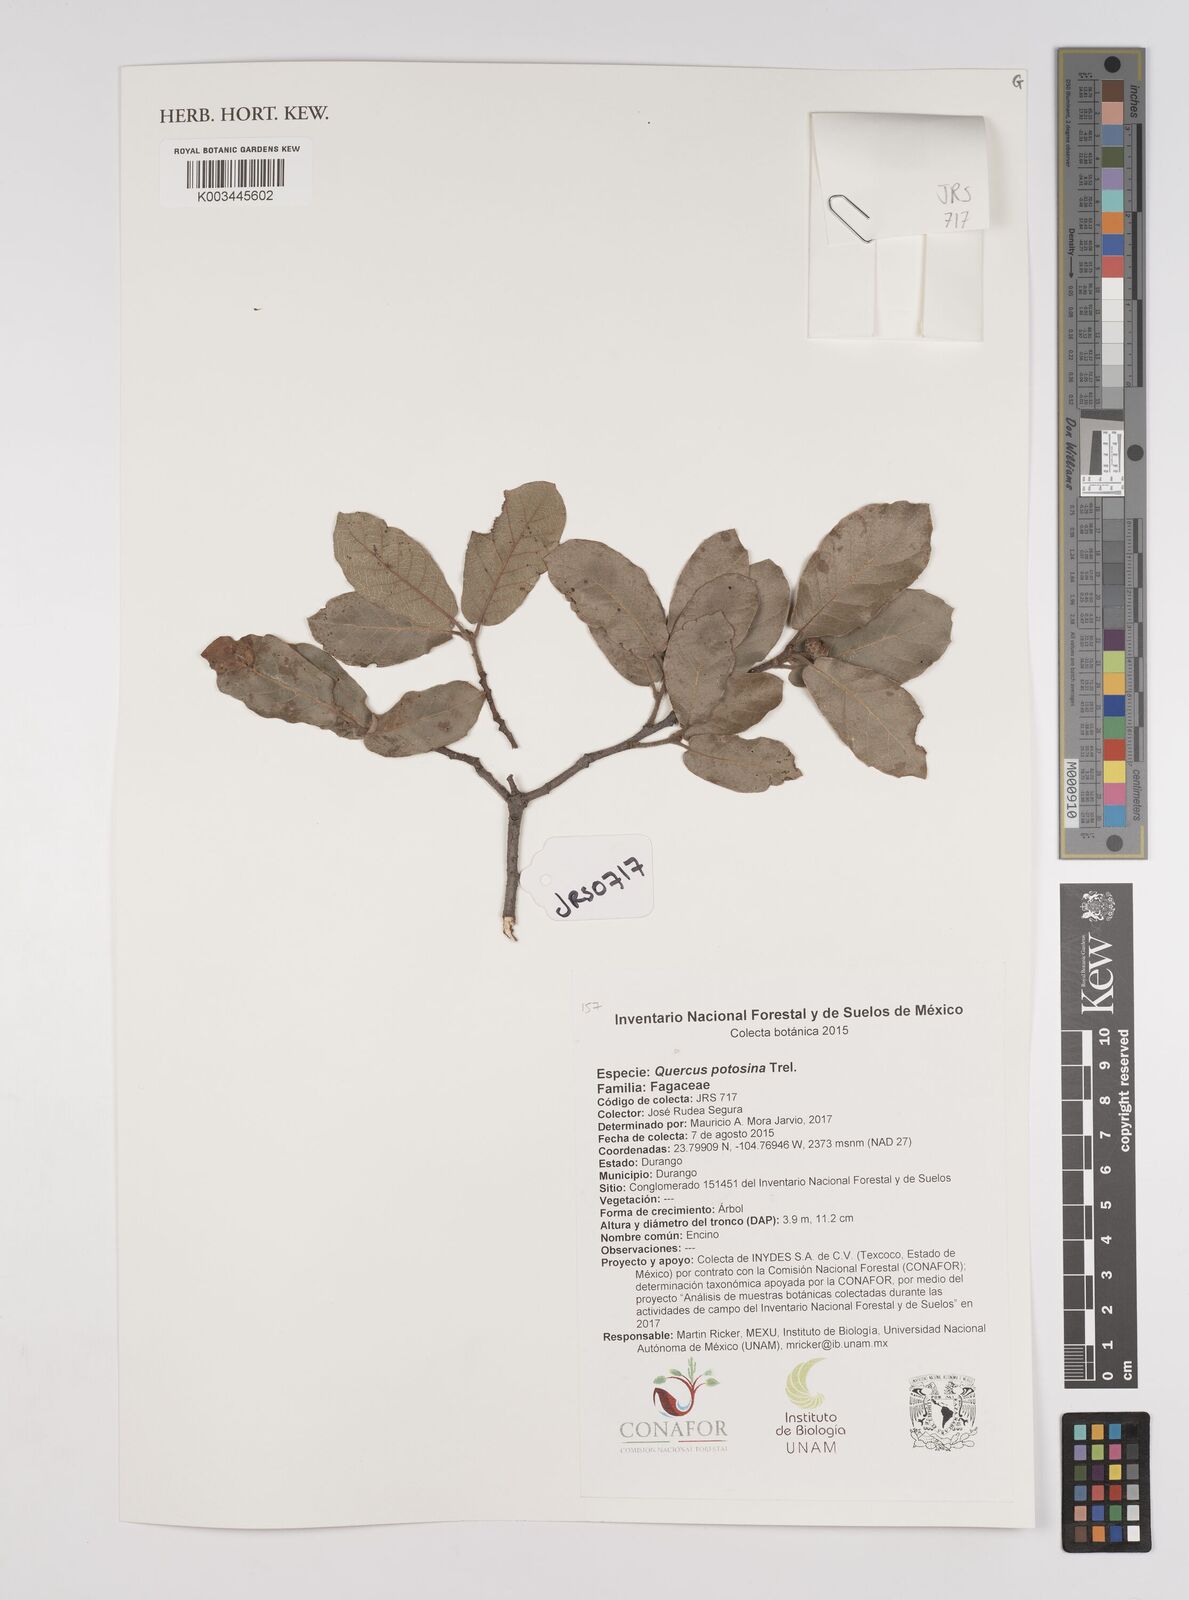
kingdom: Plantae
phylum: Tracheophyta
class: Magnoliopsida
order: Fagales
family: Fagaceae
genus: Quercus
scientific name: Quercus potosina
